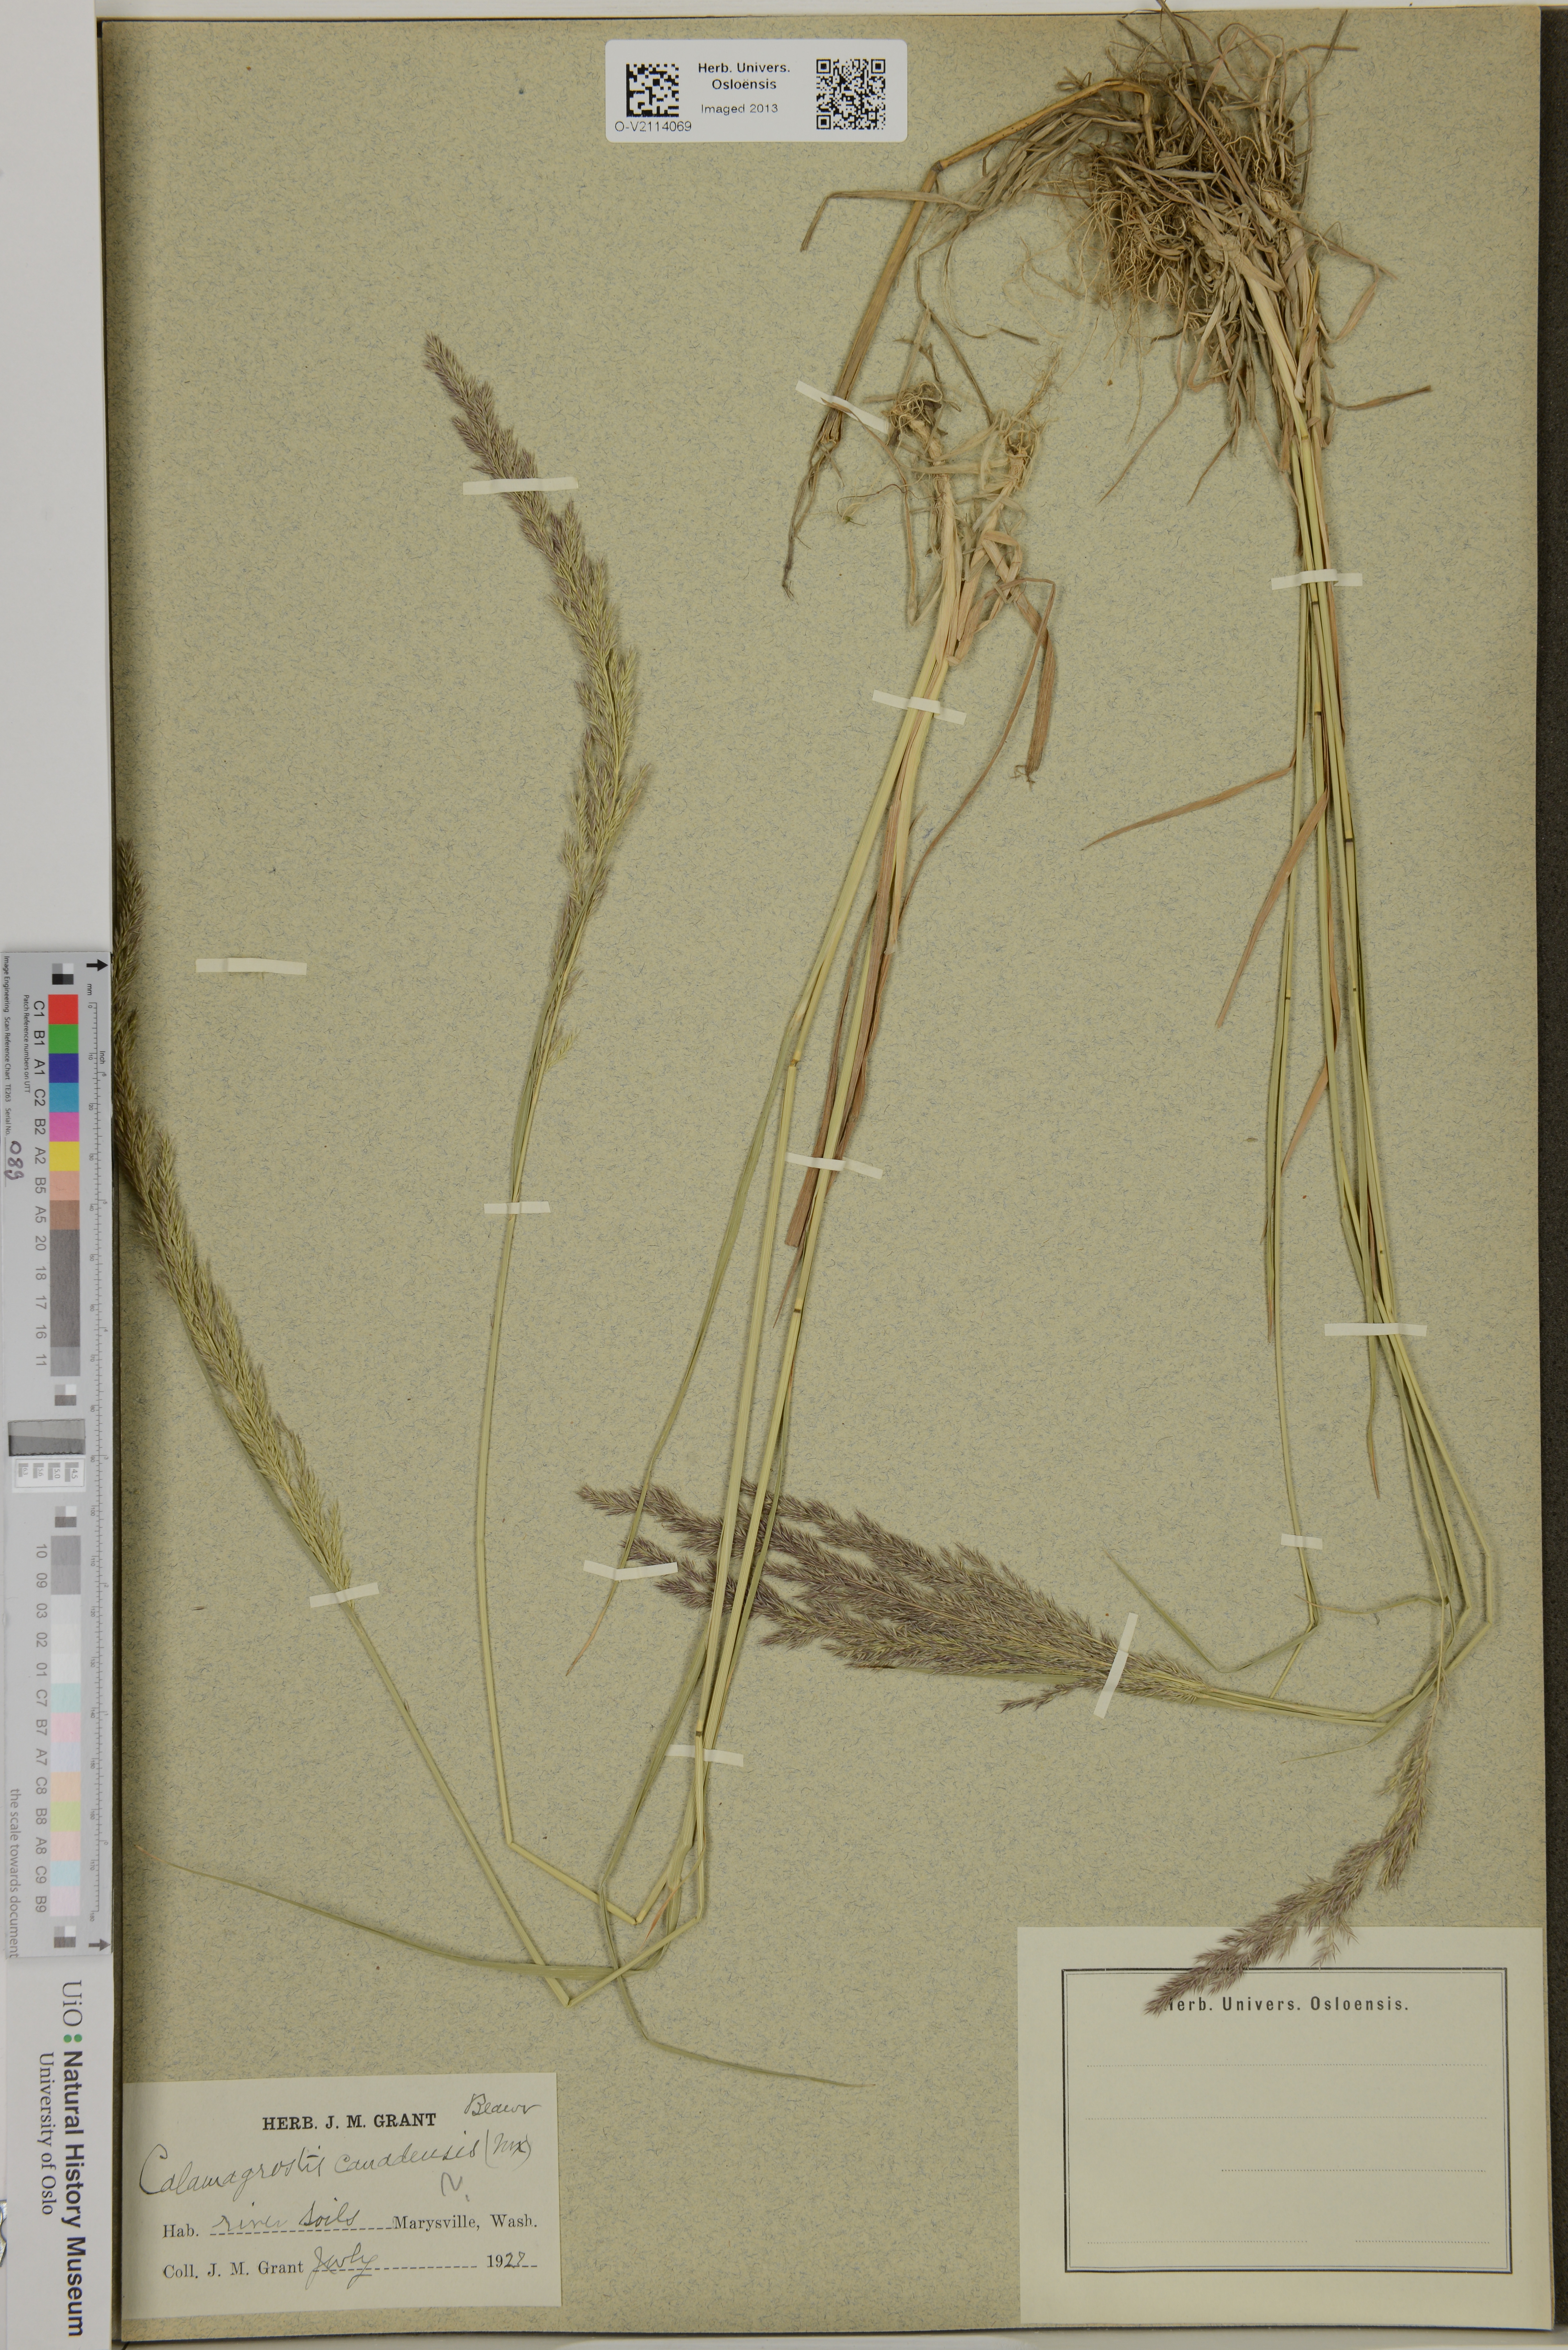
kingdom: Plantae
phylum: Tracheophyta
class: Liliopsida
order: Poales
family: Poaceae
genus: Calamagrostis
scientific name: Calamagrostis canadensis
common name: Canada bluejoint
